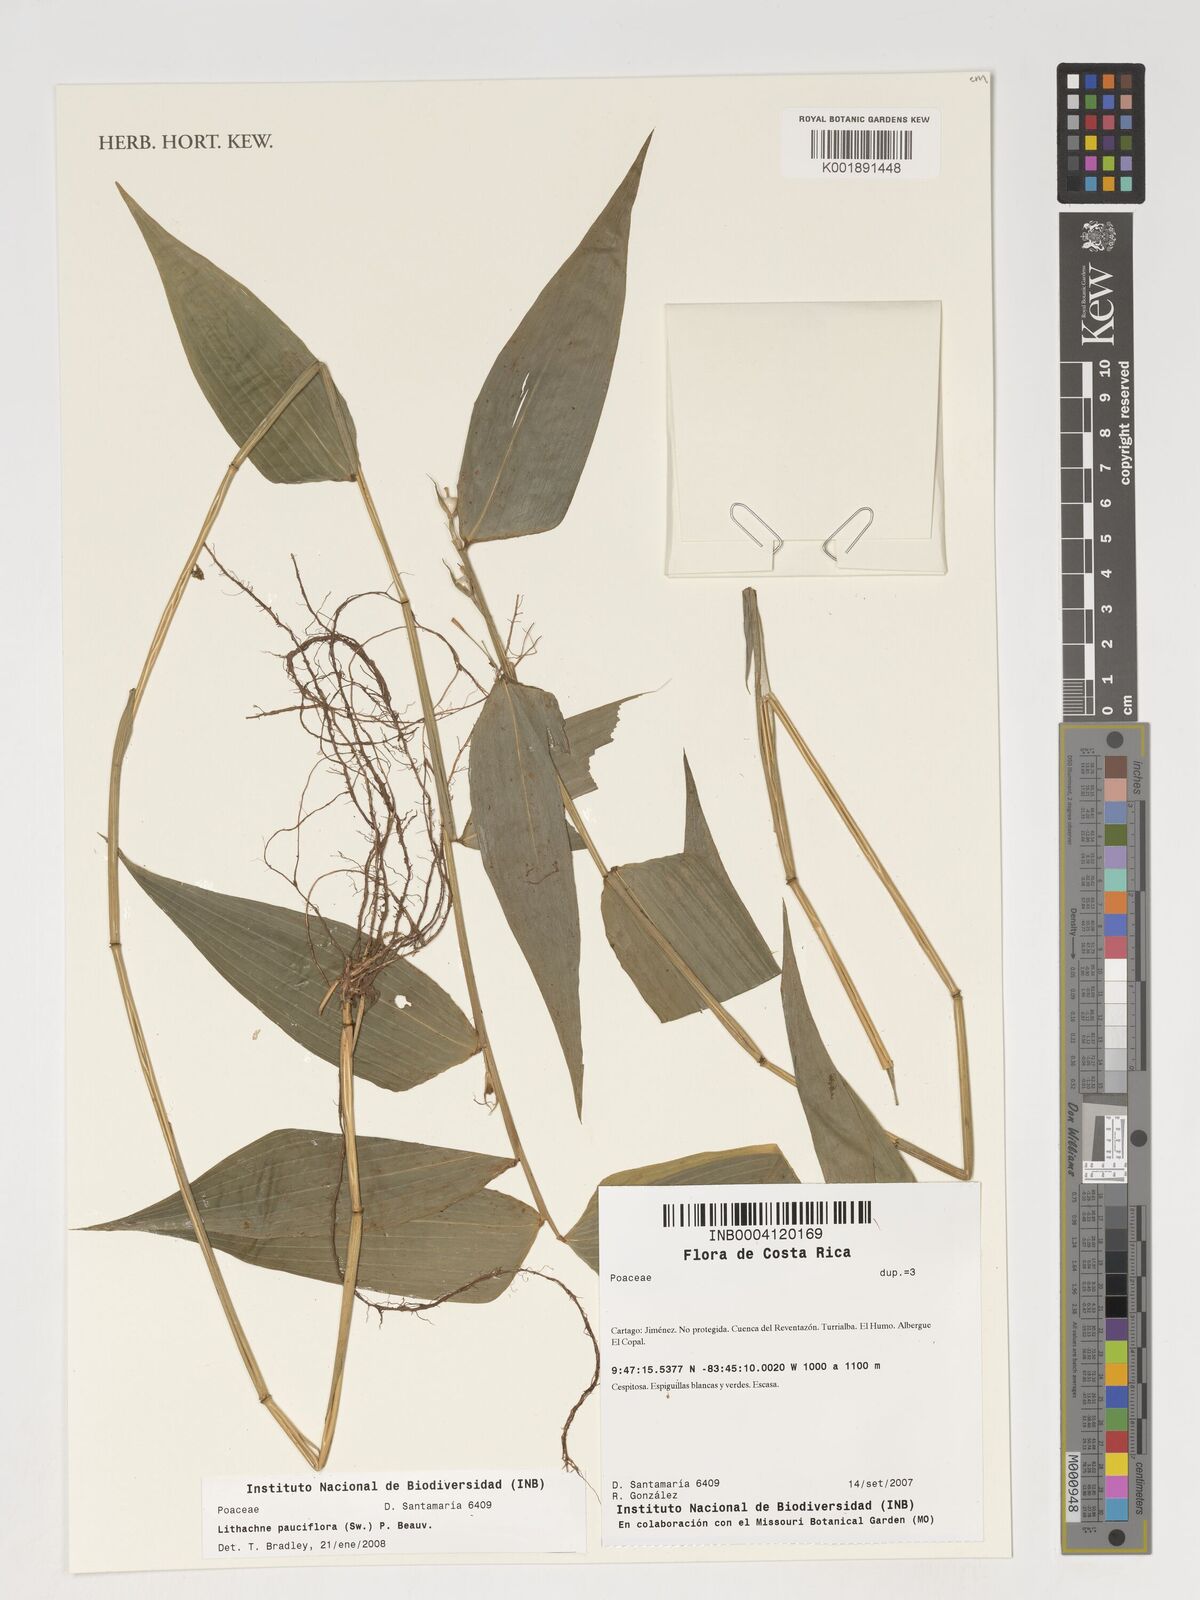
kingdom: Plantae
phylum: Tracheophyta
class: Liliopsida
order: Poales
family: Poaceae
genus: Lithachne
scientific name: Lithachne pauciflora
